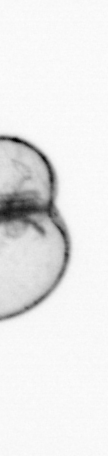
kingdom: Chromista
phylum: Myzozoa
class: Dinophyceae
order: Noctilucales
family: Noctilucaceae
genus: Noctiluca
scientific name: Noctiluca scintillans
